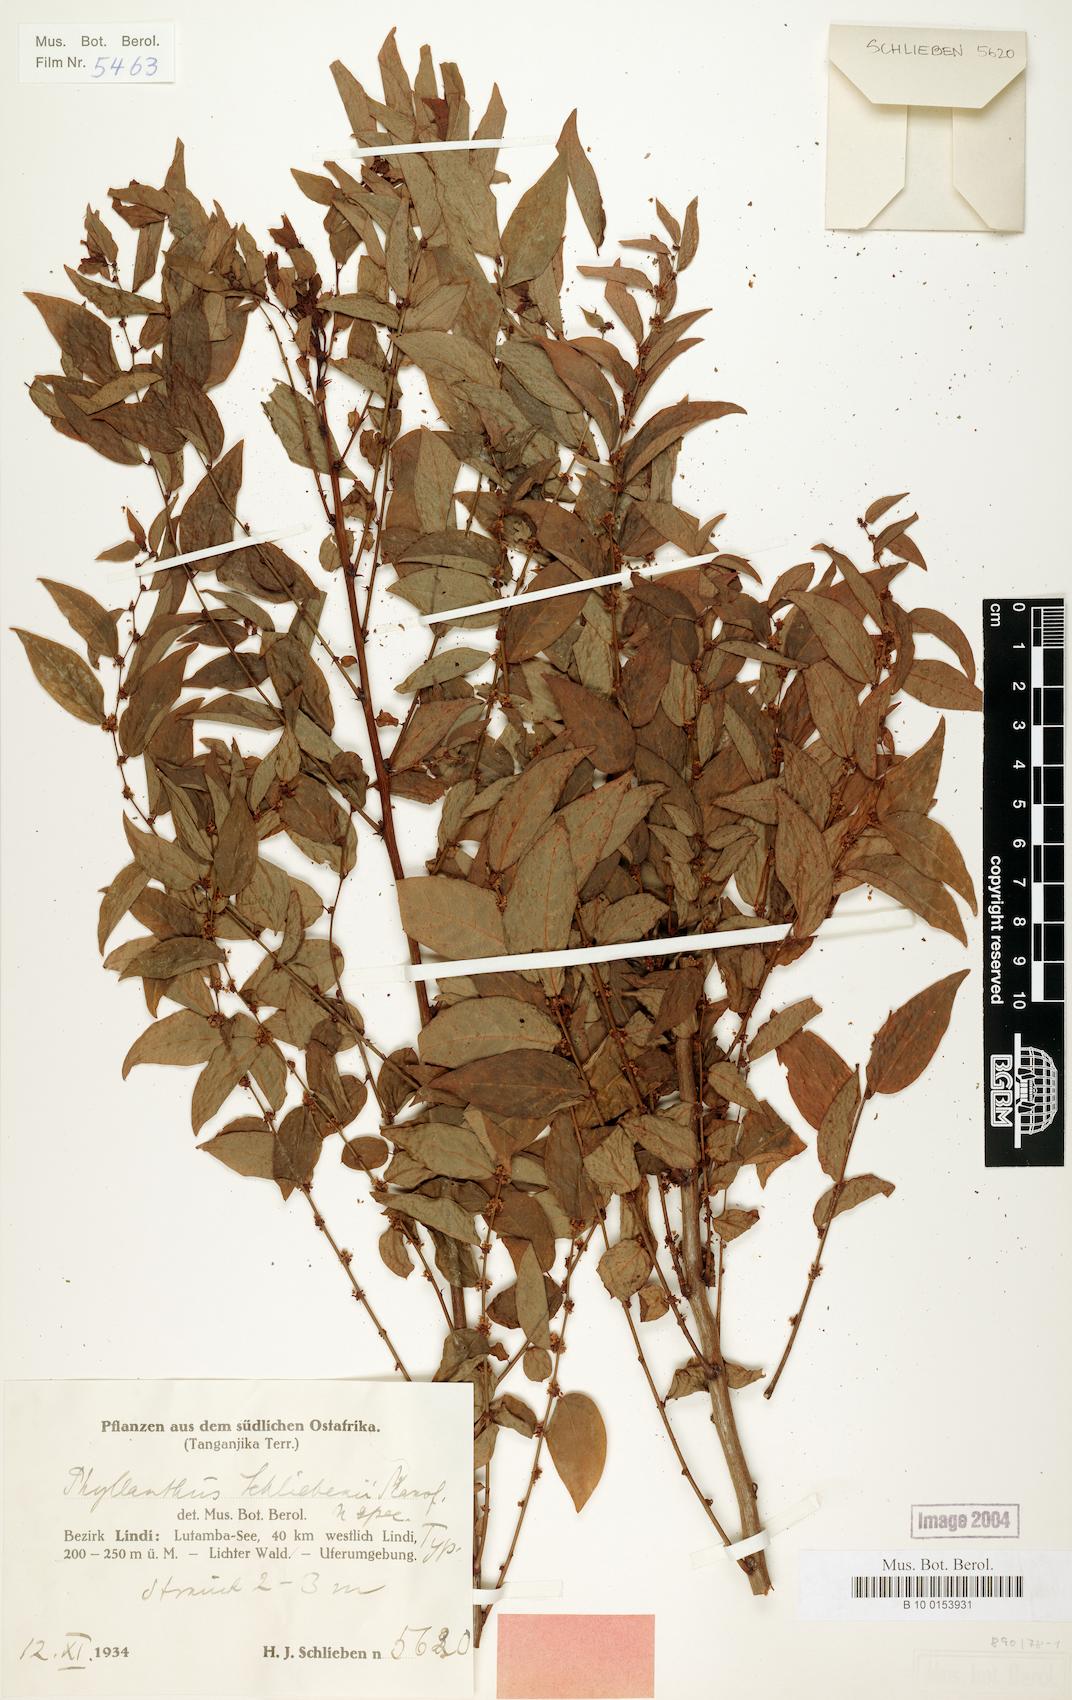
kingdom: Plantae
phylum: Tracheophyta
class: Magnoliopsida
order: Malpighiales
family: Phyllanthaceae
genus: Phyllanthus
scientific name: Phyllanthus schliebenii
